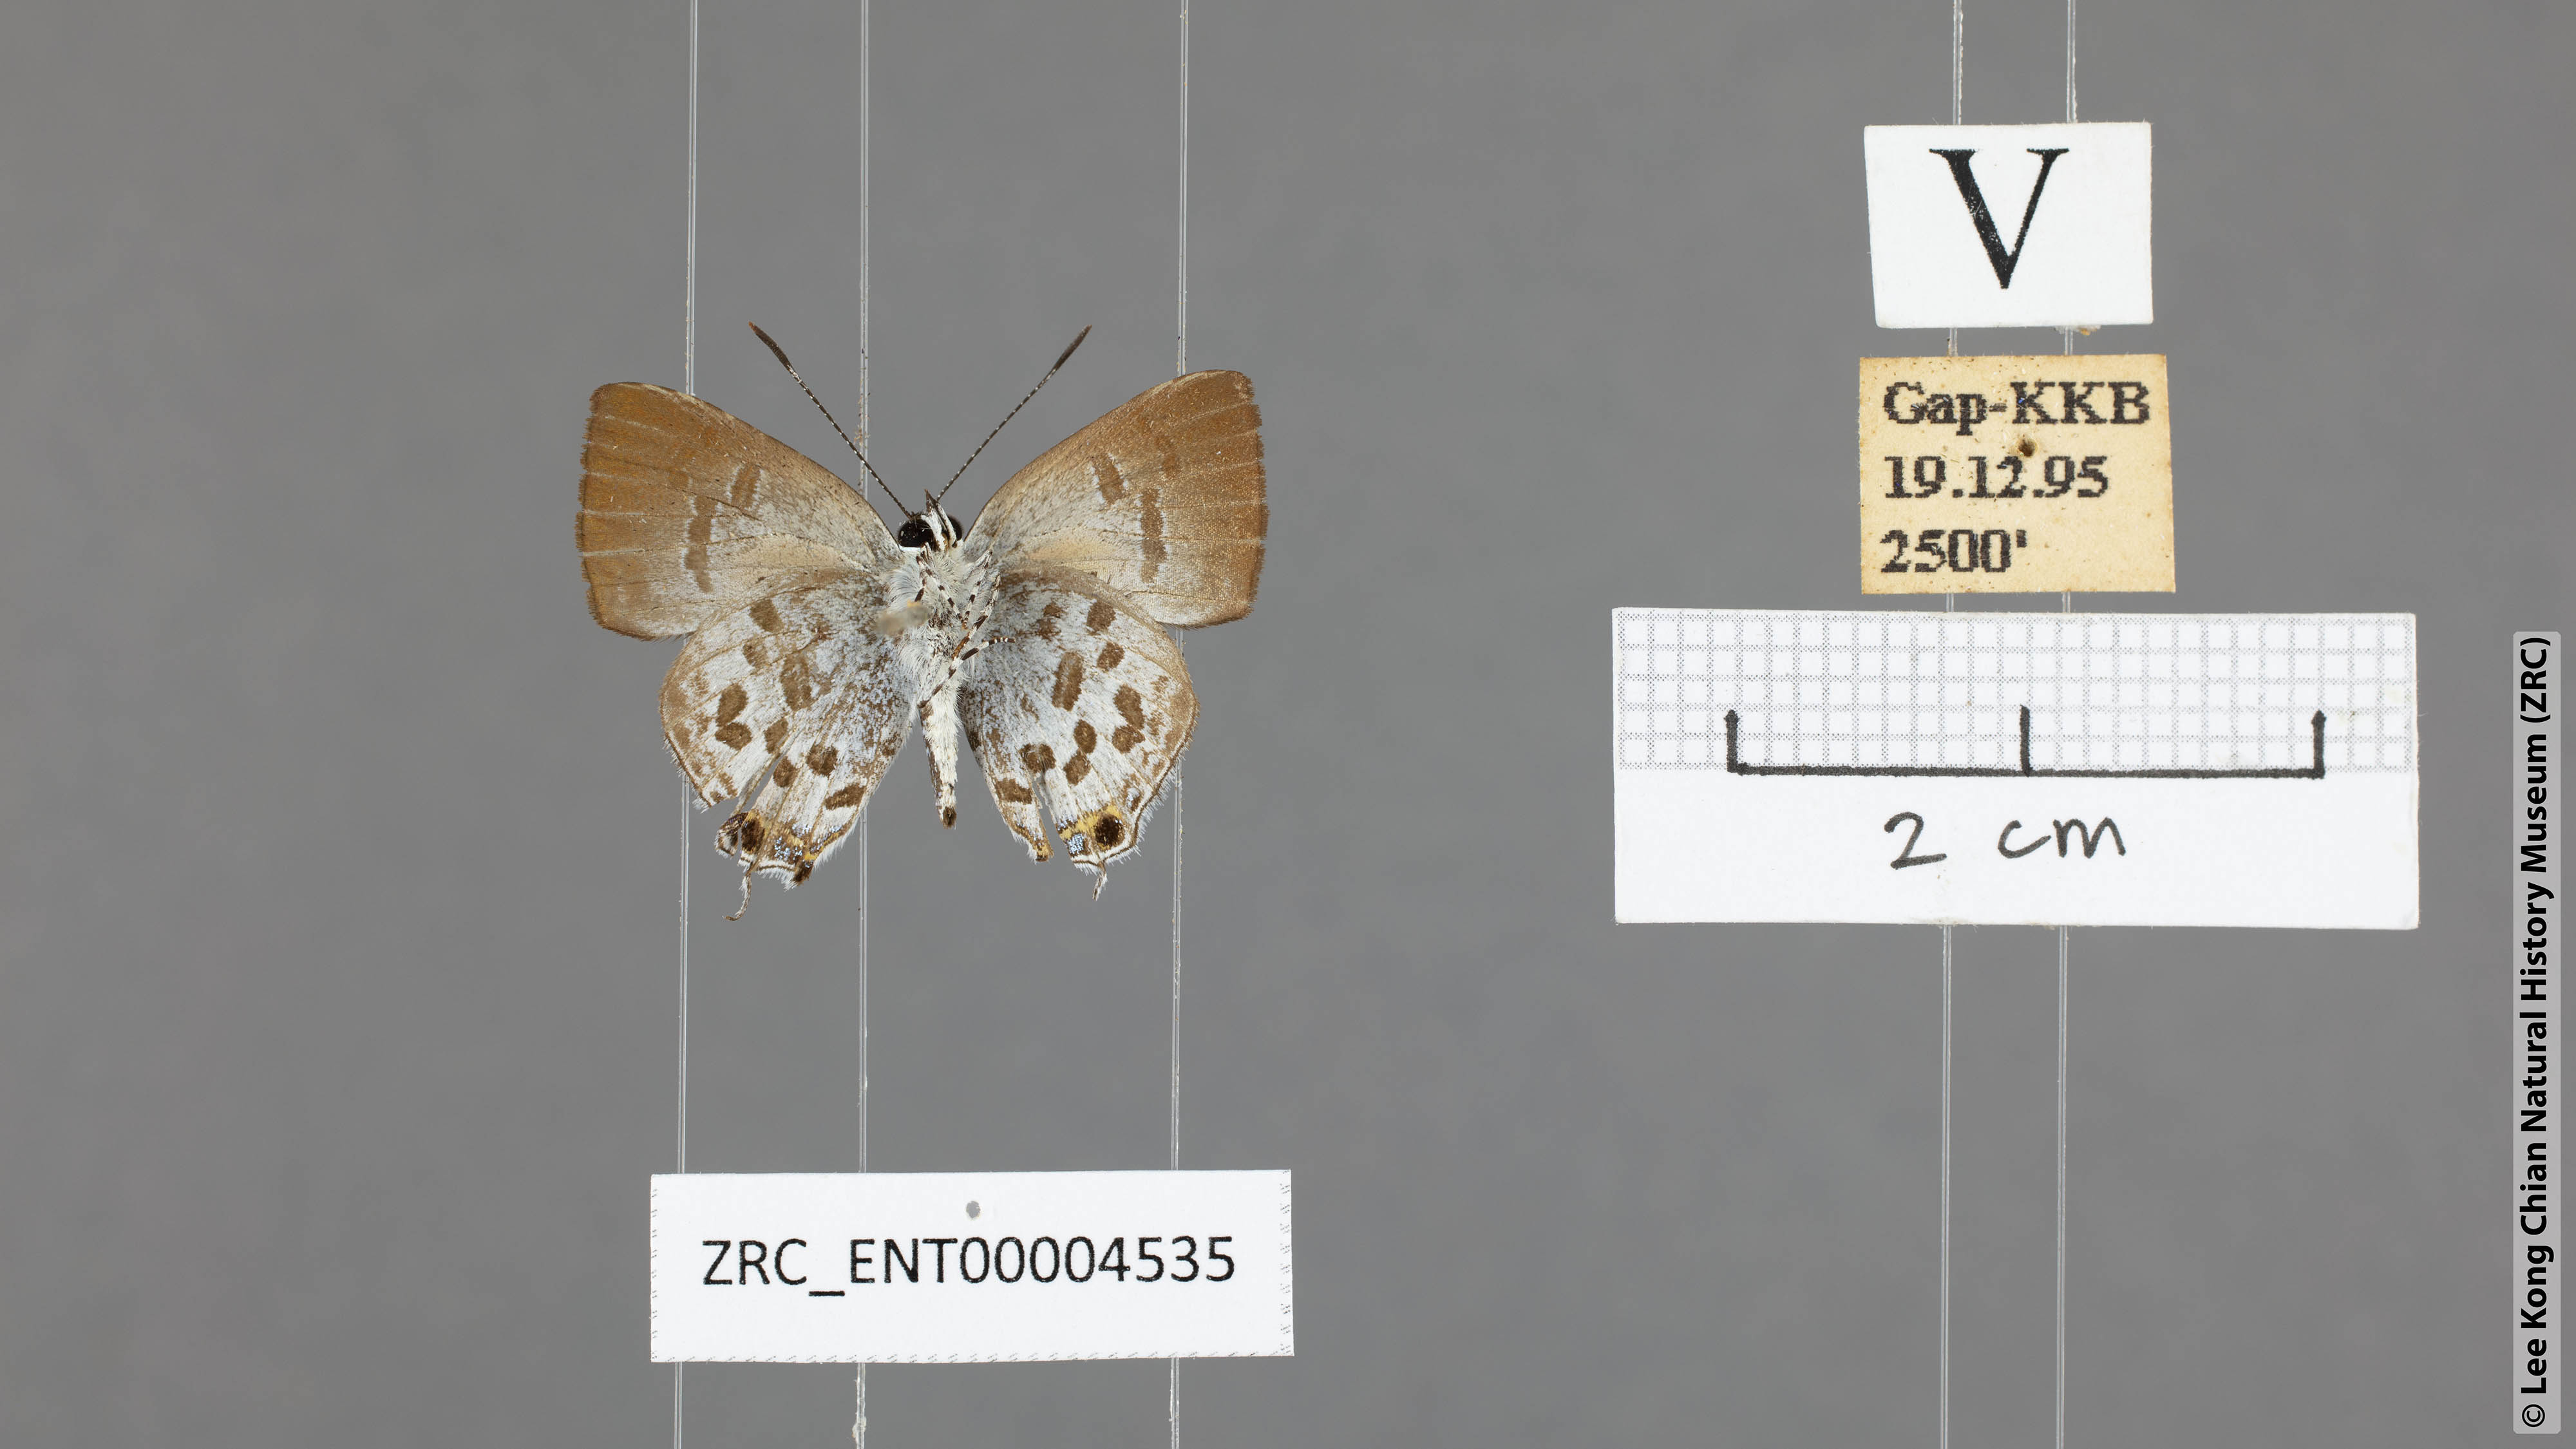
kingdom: Animalia
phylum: Arthropoda
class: Insecta
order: Lepidoptera
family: Lycaenidae
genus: Sinthusa
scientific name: Sinthusa malika
